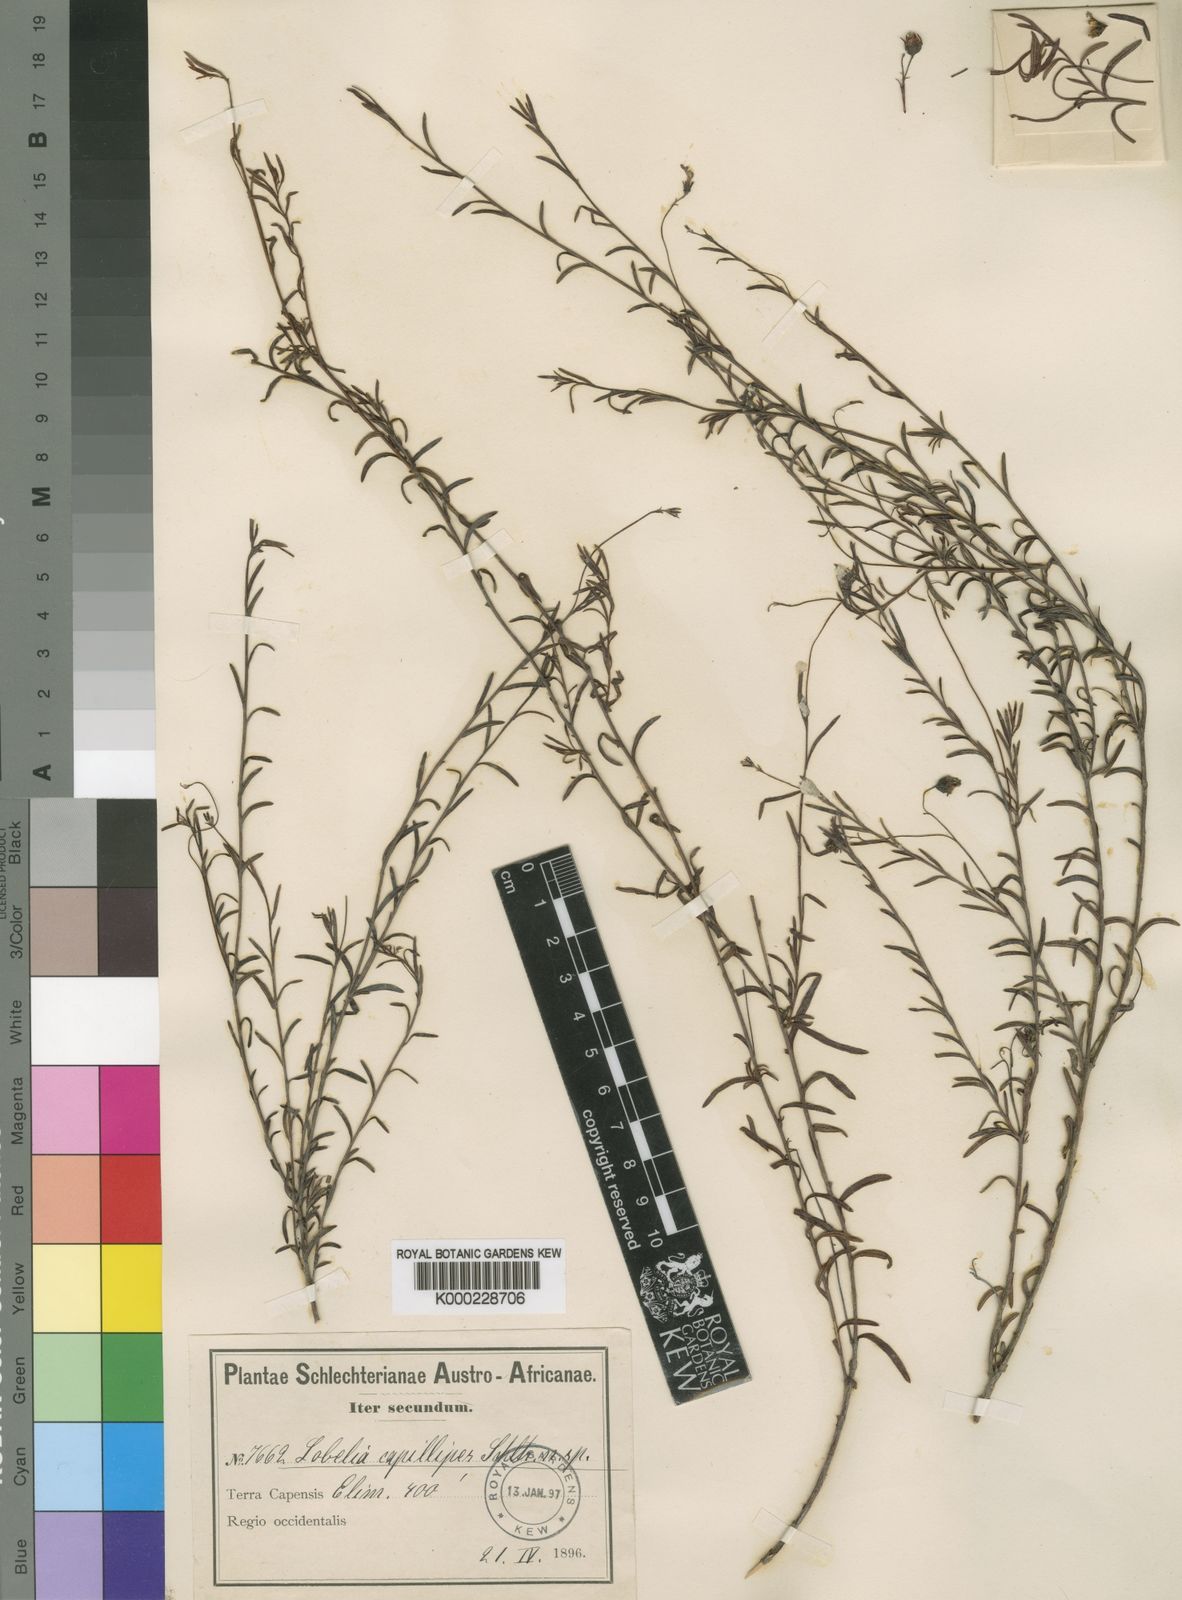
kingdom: Plantae
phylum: Tracheophyta
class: Magnoliopsida
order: Asterales
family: Campanulaceae
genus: Lobelia
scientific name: Lobelia pinifolia
